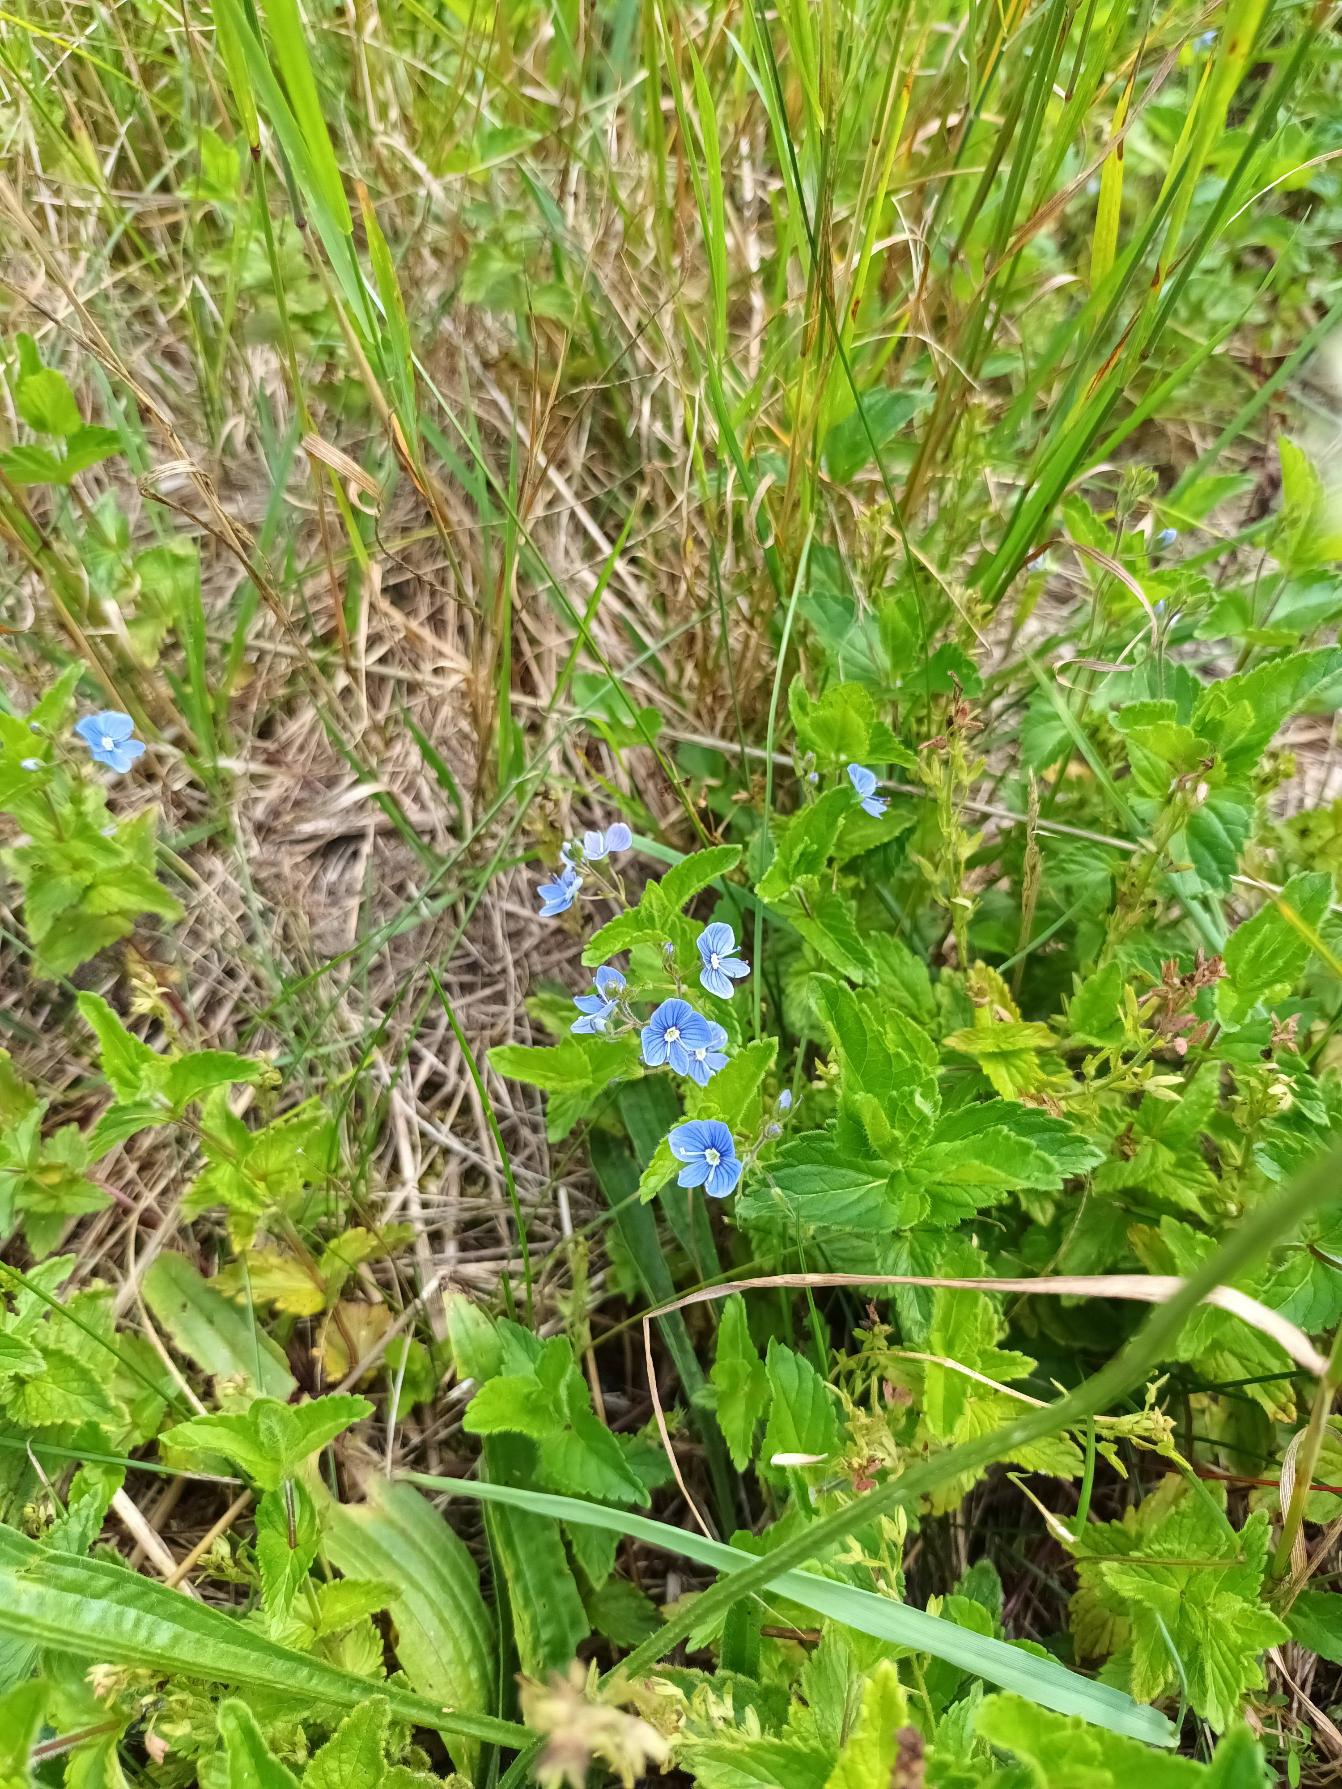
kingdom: Plantae
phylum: Tracheophyta
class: Magnoliopsida
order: Lamiales
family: Plantaginaceae
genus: Veronica
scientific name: Veronica chamaedrys
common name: Tveskægget ærenpris
